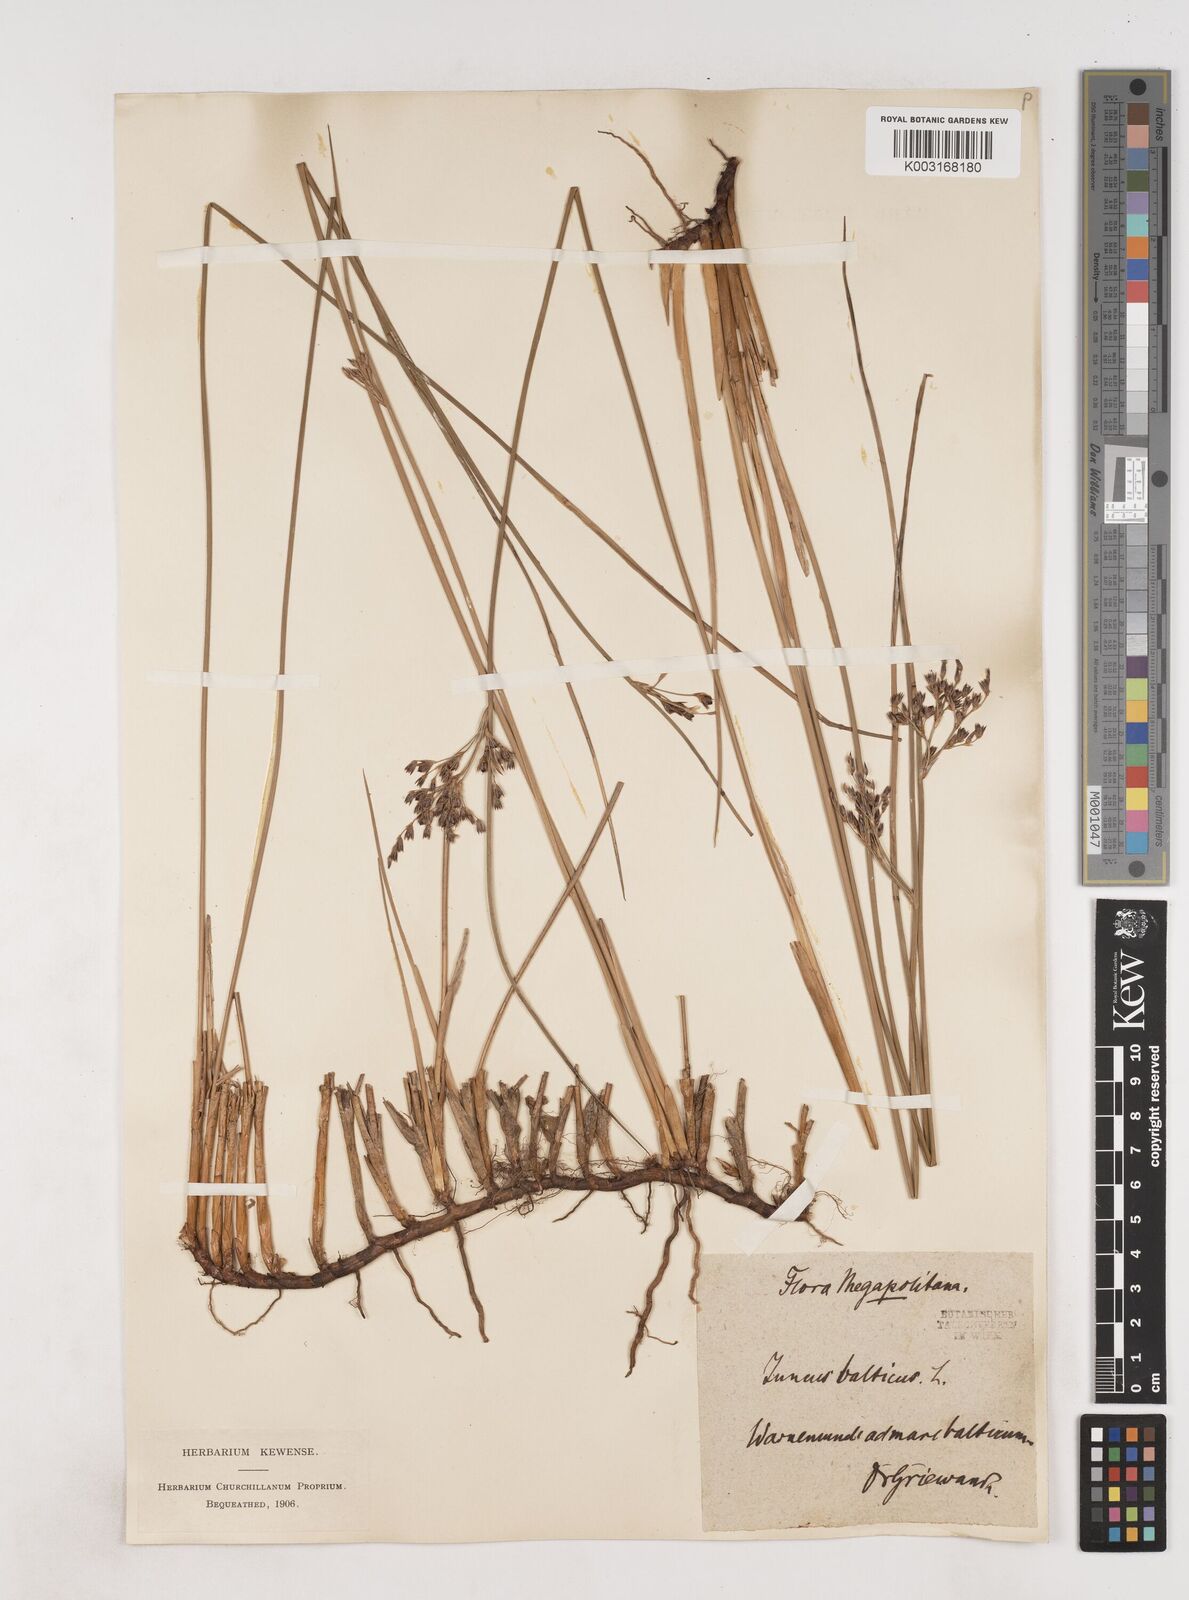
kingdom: Plantae
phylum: Tracheophyta
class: Liliopsida
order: Poales
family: Juncaceae
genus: Juncus
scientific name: Juncus balticus
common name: Baltic rush
